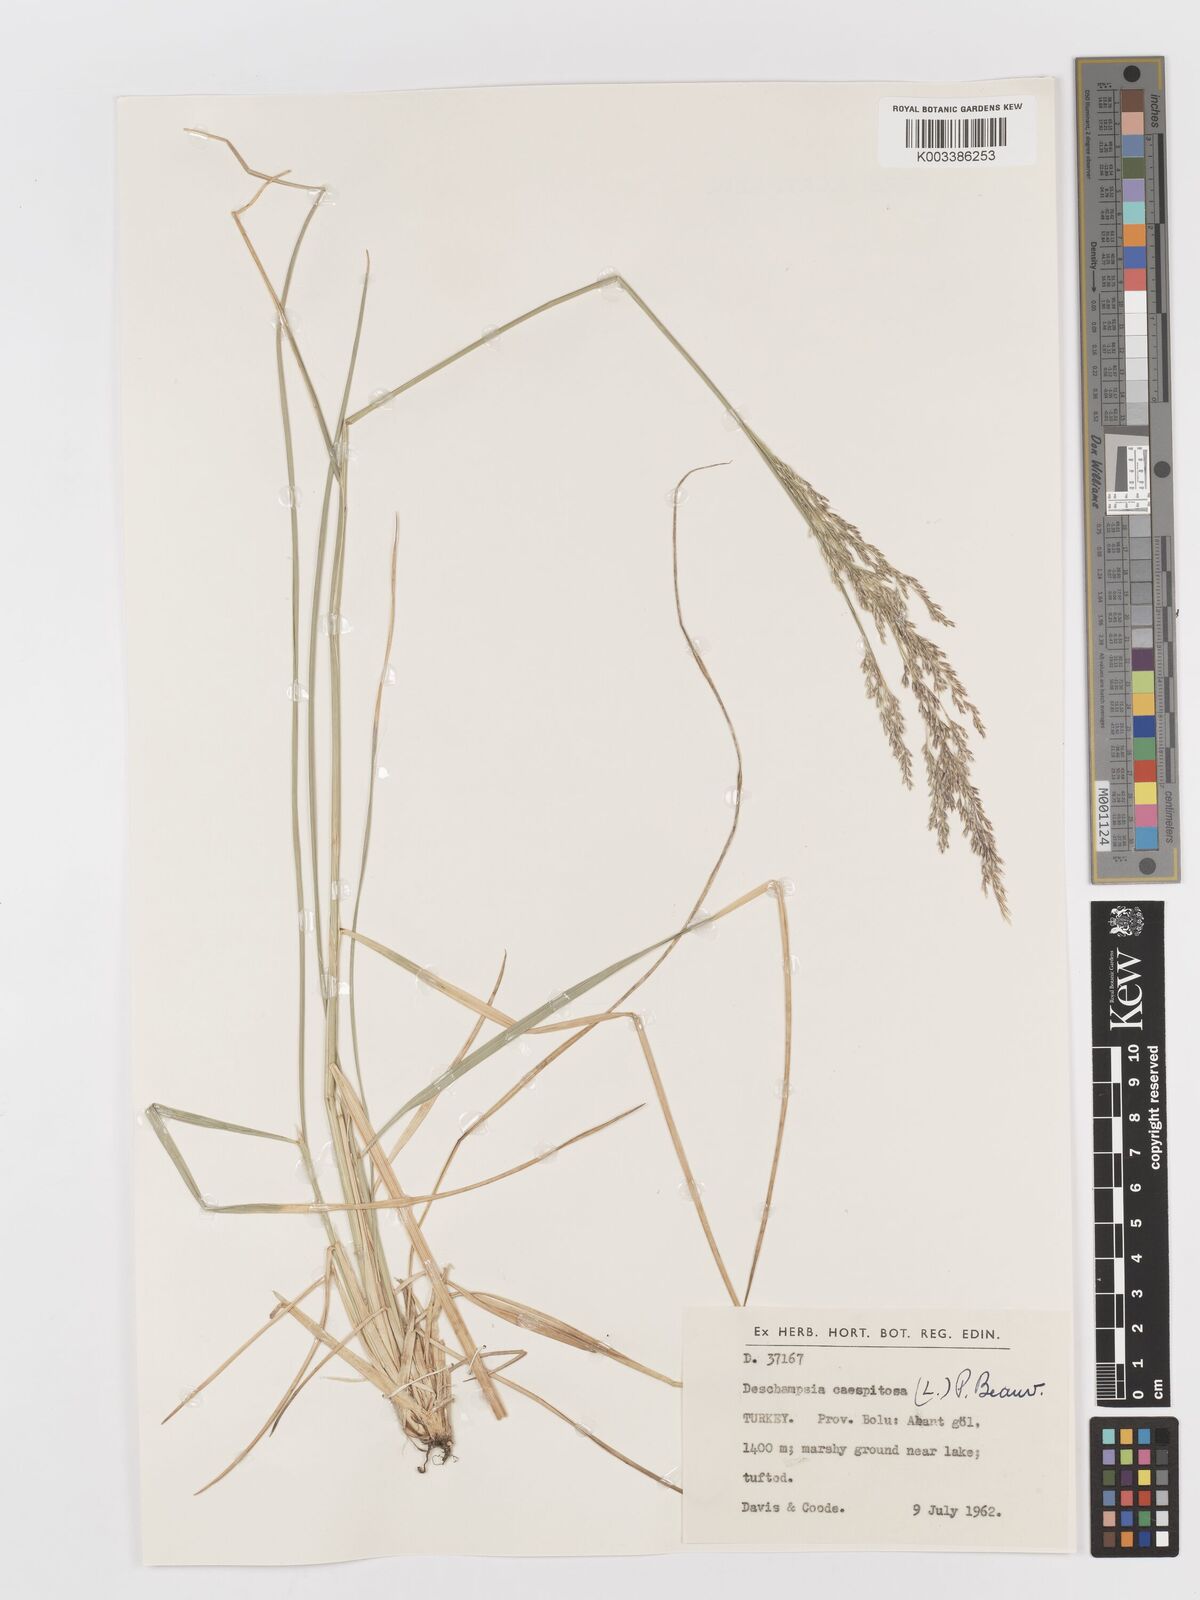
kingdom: Plantae
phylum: Tracheophyta
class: Liliopsida
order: Poales
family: Poaceae
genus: Deschampsia
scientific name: Deschampsia cespitosa
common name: Tufted hair-grass
